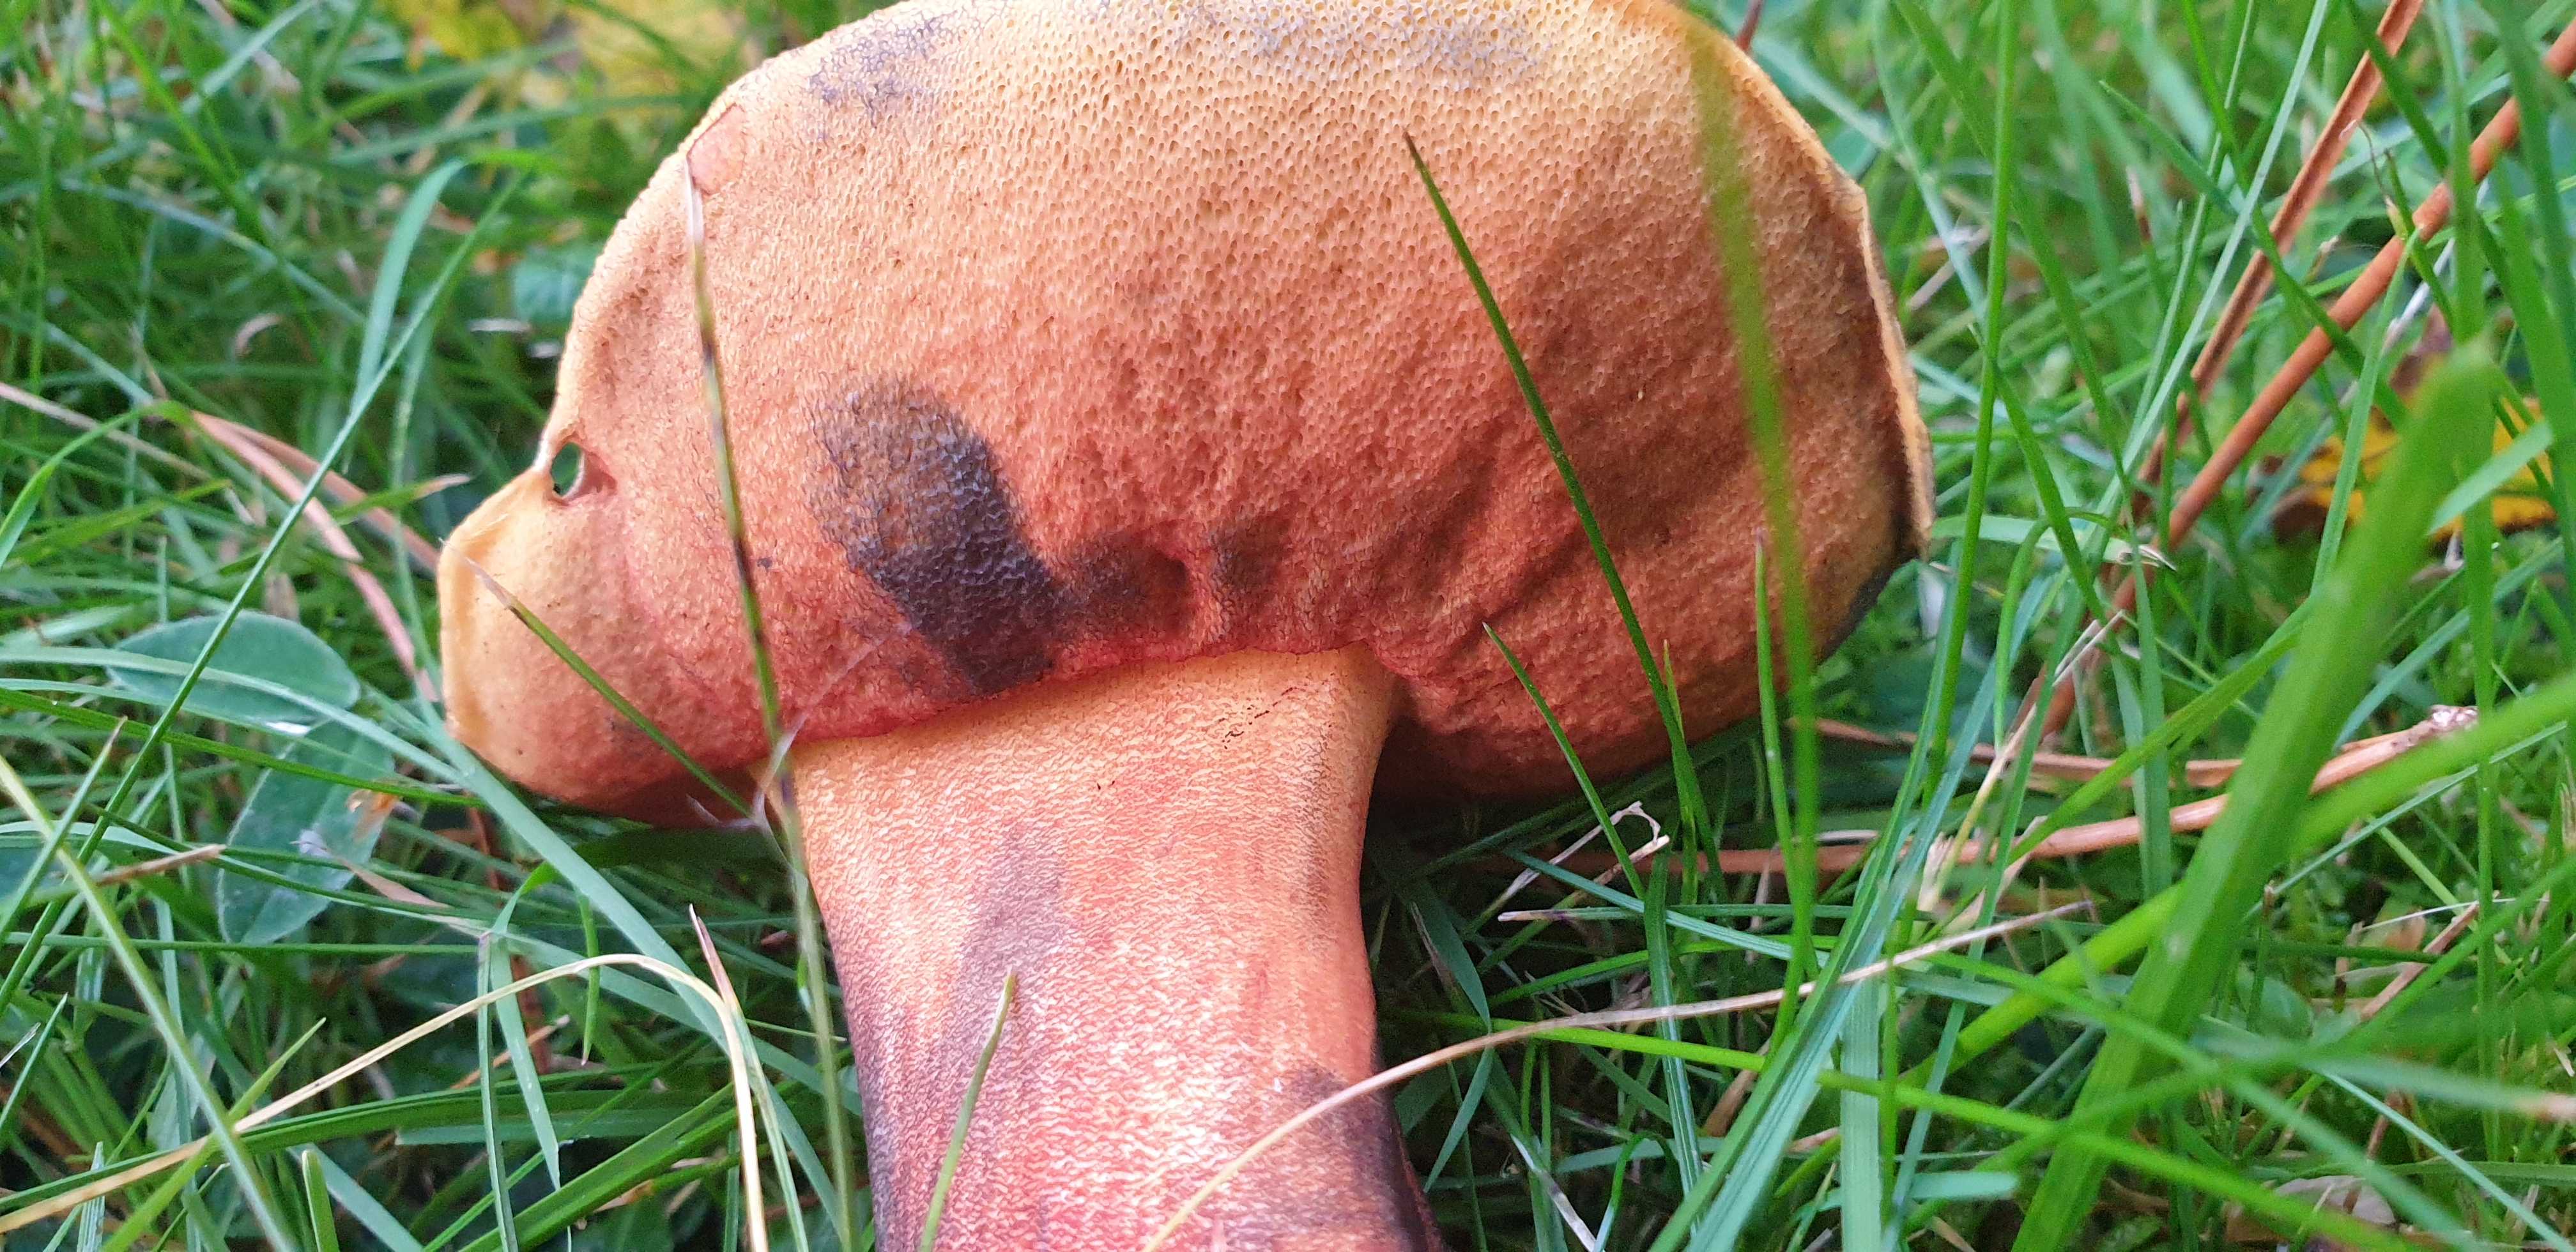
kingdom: Fungi
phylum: Basidiomycota
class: Agaricomycetes
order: Boletales
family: Boletaceae
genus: Neoboletus
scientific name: Neoboletus erythropus
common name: punktstokket indigorørhat
